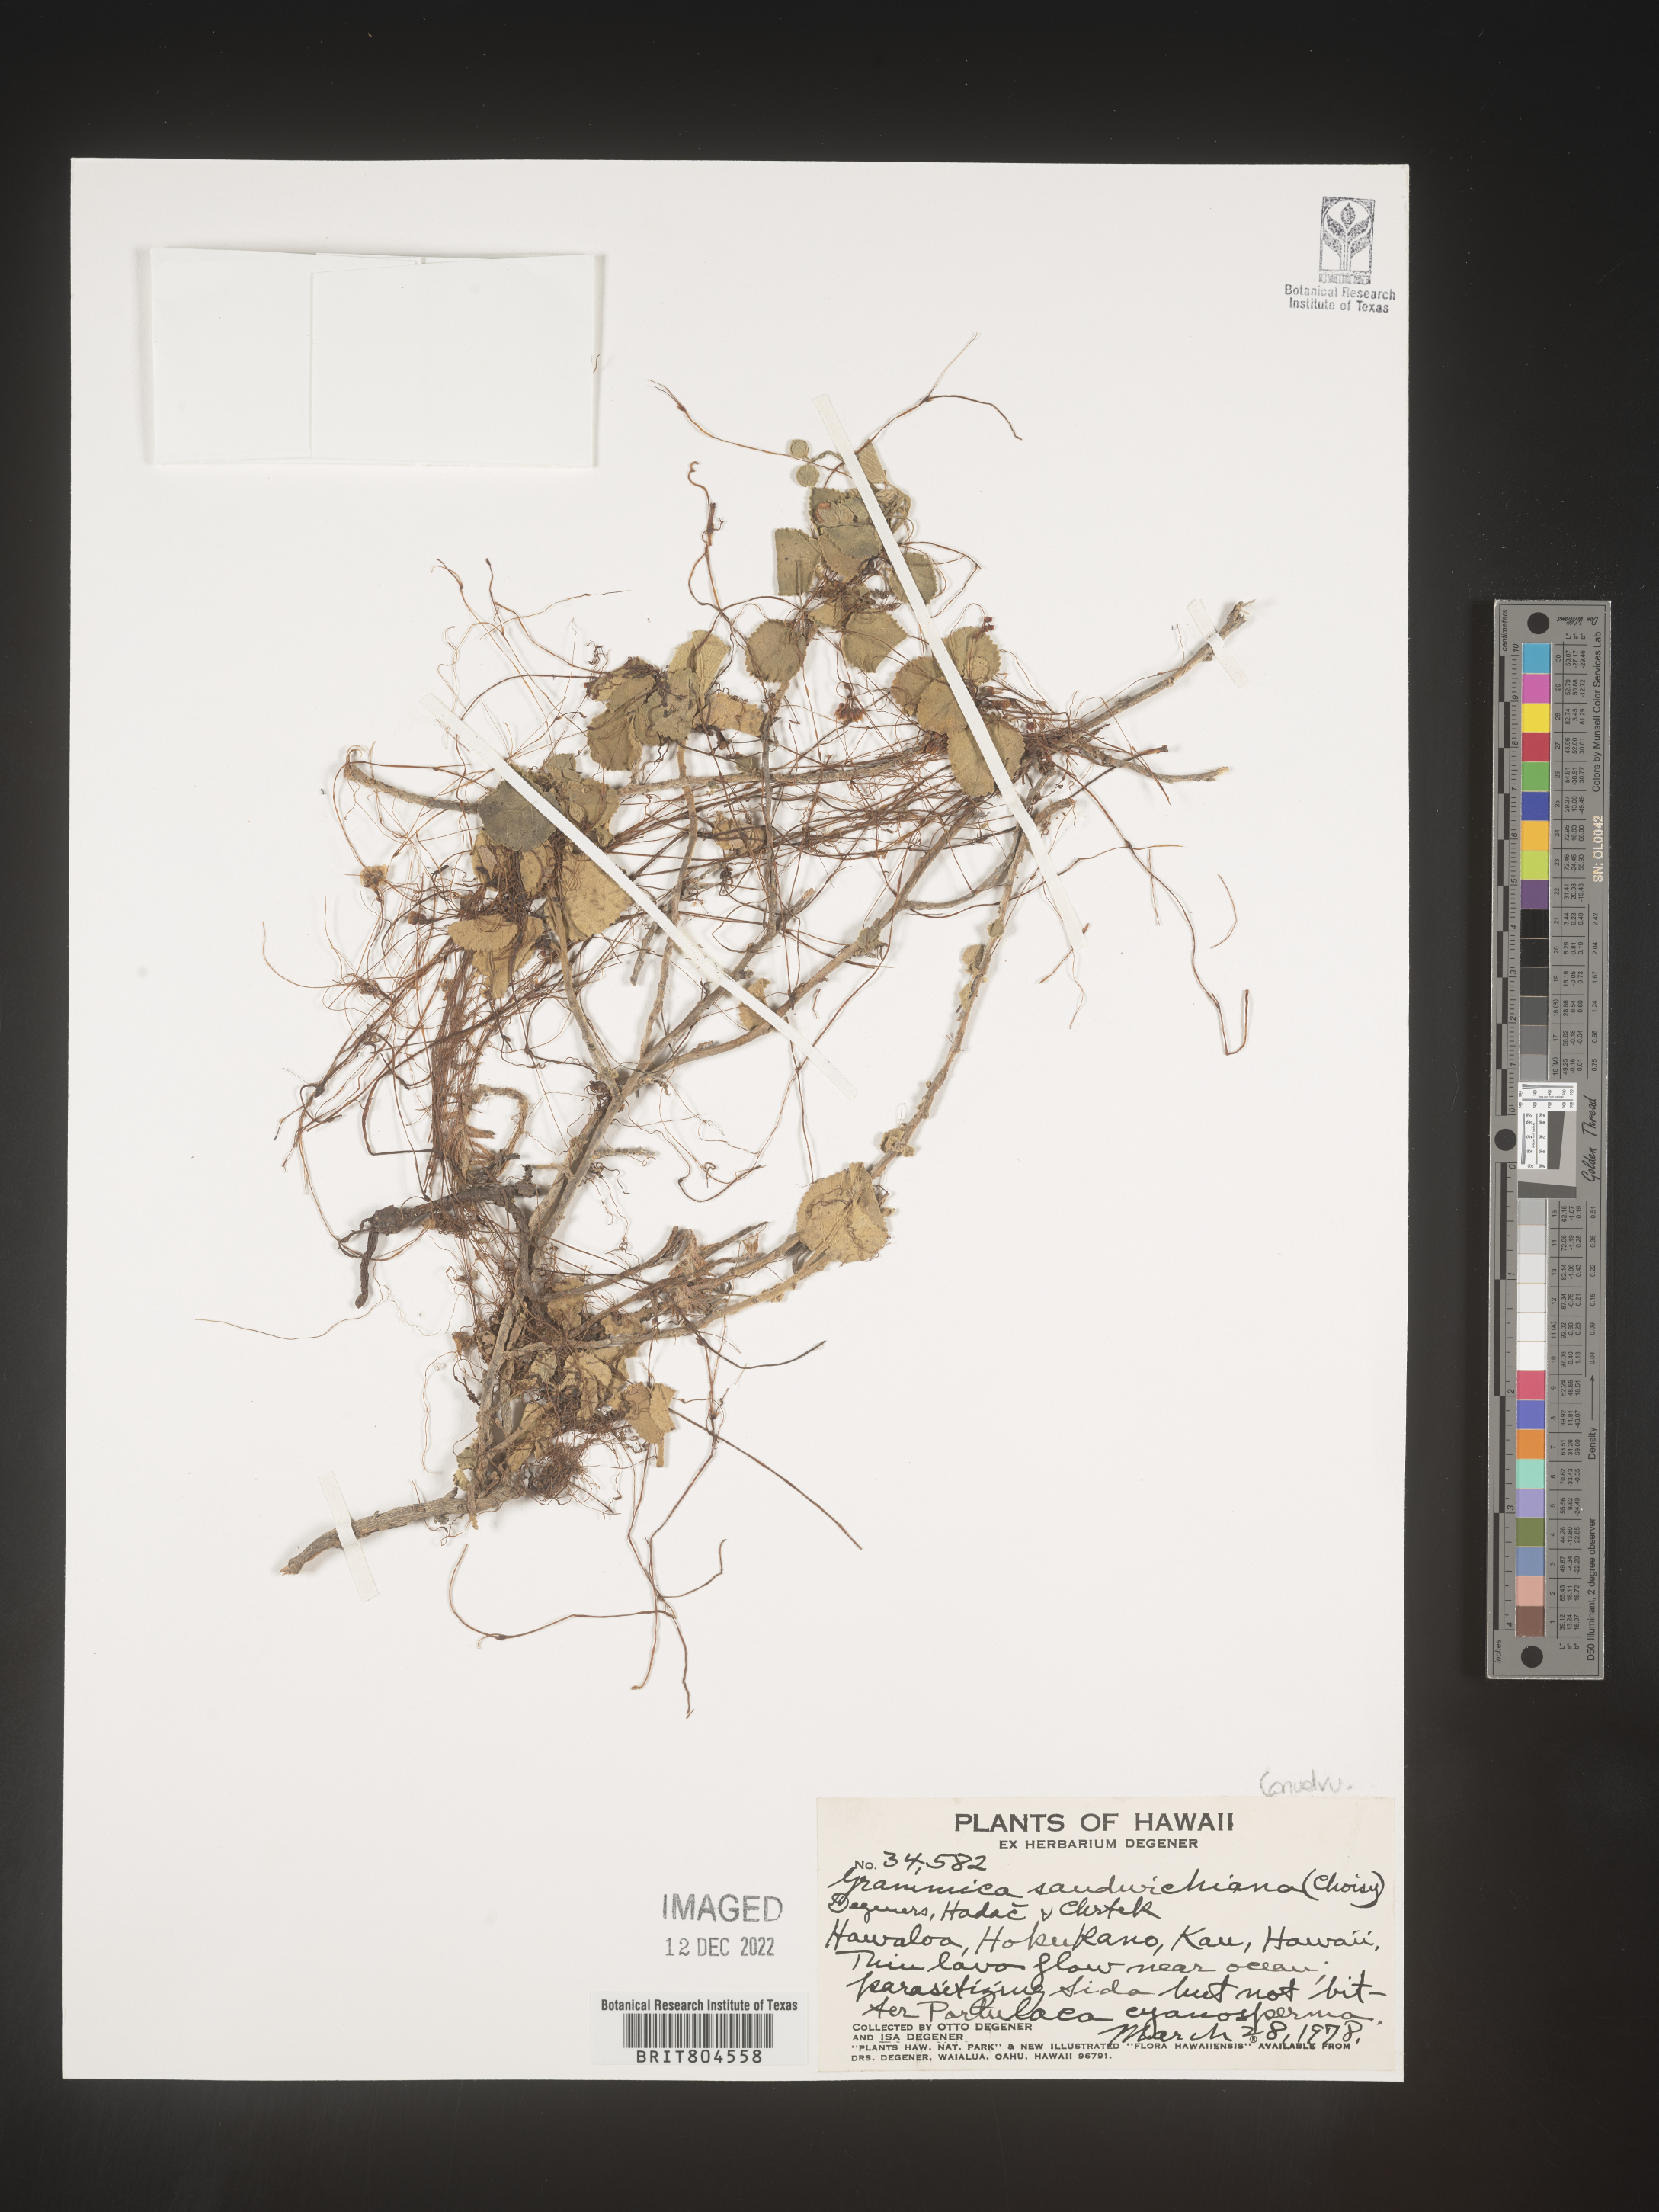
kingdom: Plantae
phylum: Tracheophyta
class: Magnoliopsida
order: Solanales
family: Convolvulaceae
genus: Cuscuta
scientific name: Cuscuta
